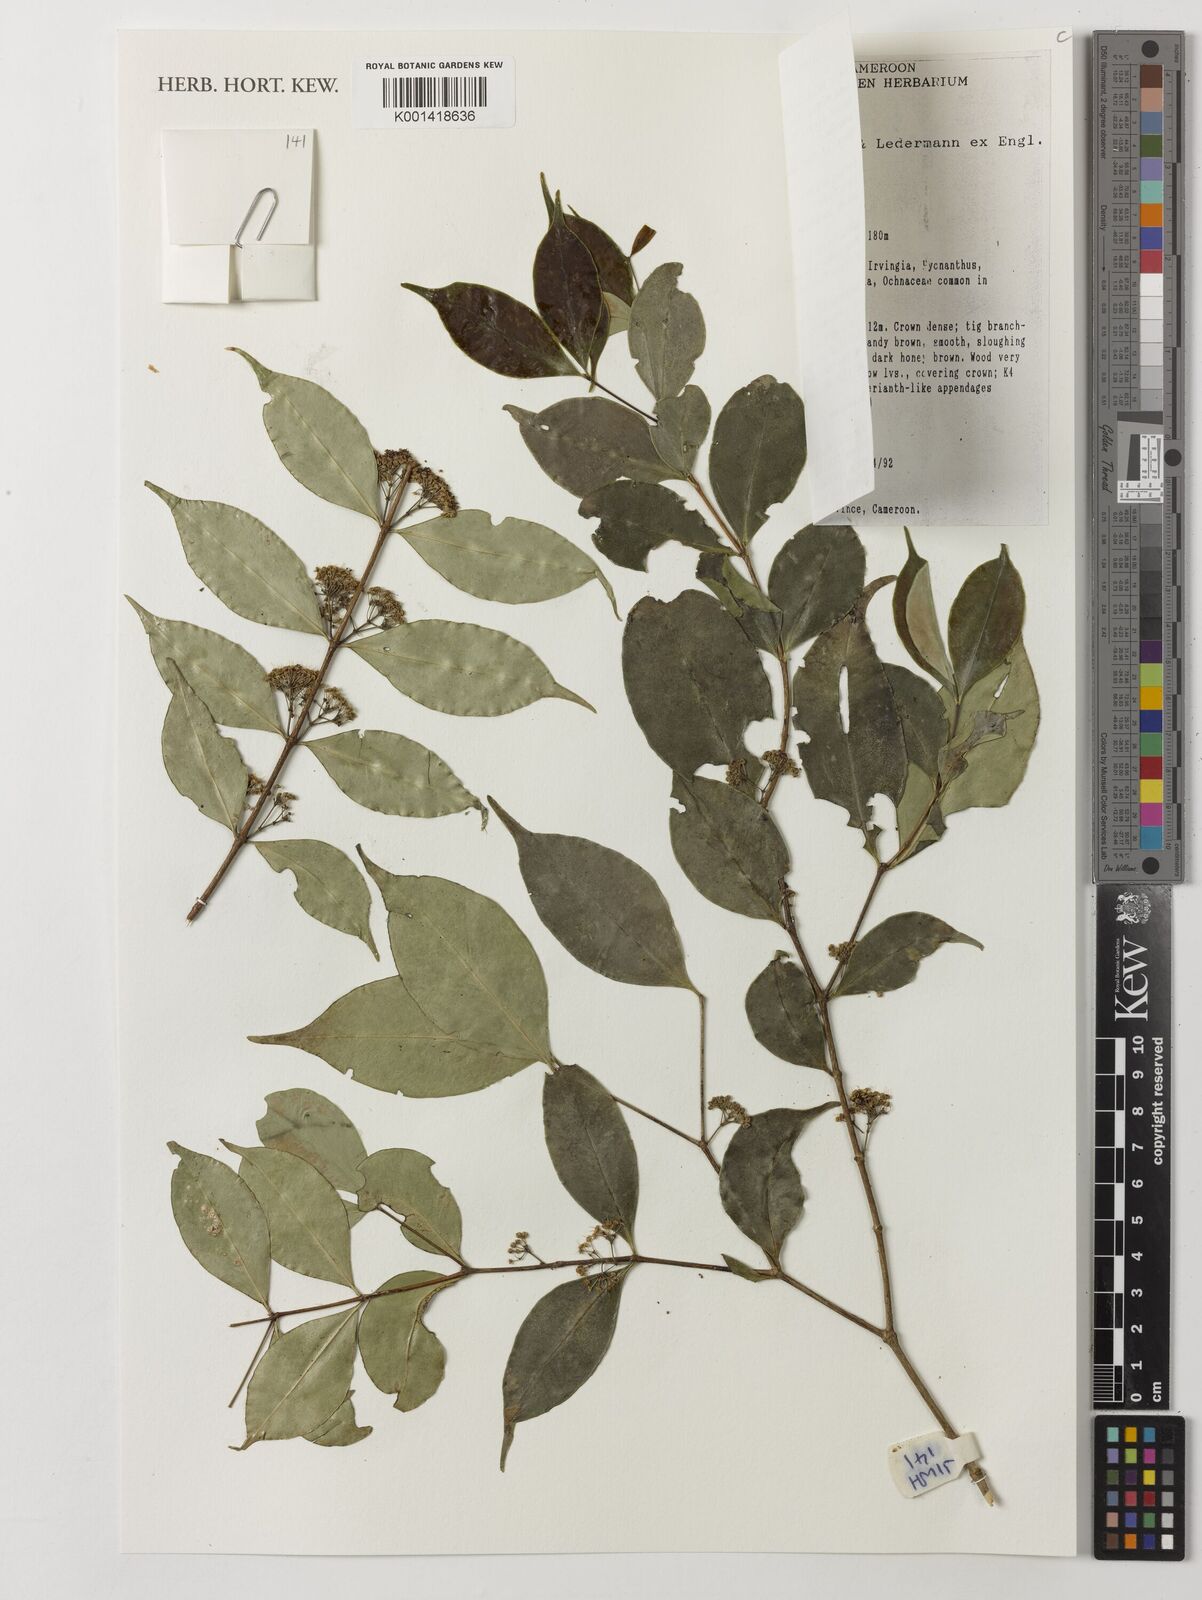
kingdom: Plantae
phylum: Tracheophyta
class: Magnoliopsida
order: Myrtales
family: Melastomataceae
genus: Memecylon
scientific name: Memecylon dasyanthum
